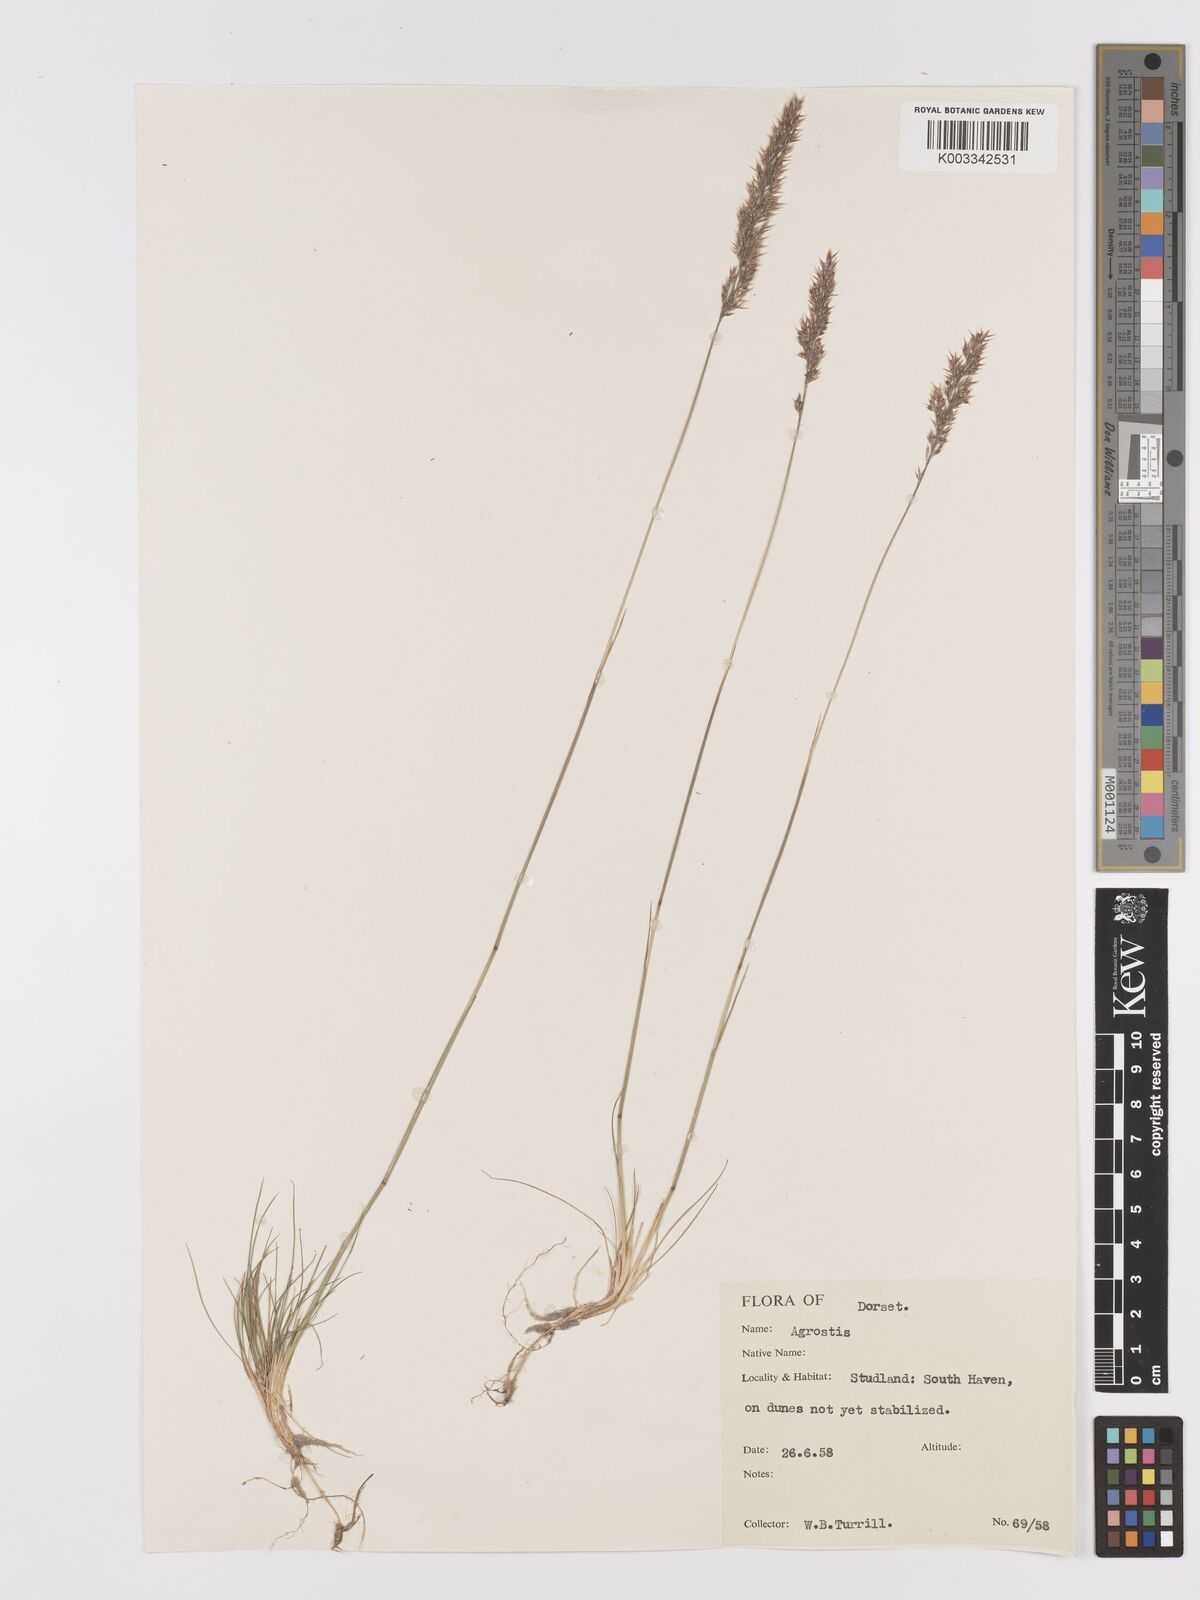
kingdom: Plantae
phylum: Tracheophyta
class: Liliopsida
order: Poales
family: Poaceae
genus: Agrostis
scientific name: Agrostis
